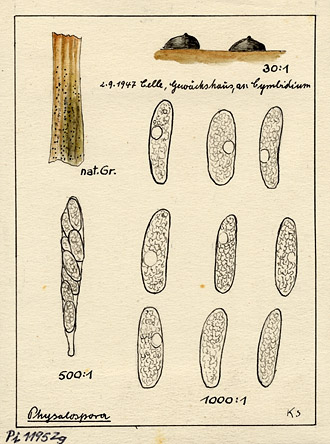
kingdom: Plantae
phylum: Tracheophyta
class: Liliopsida
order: Asparagales
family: Orchidaceae
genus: Cymbidium
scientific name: Cymbidium
